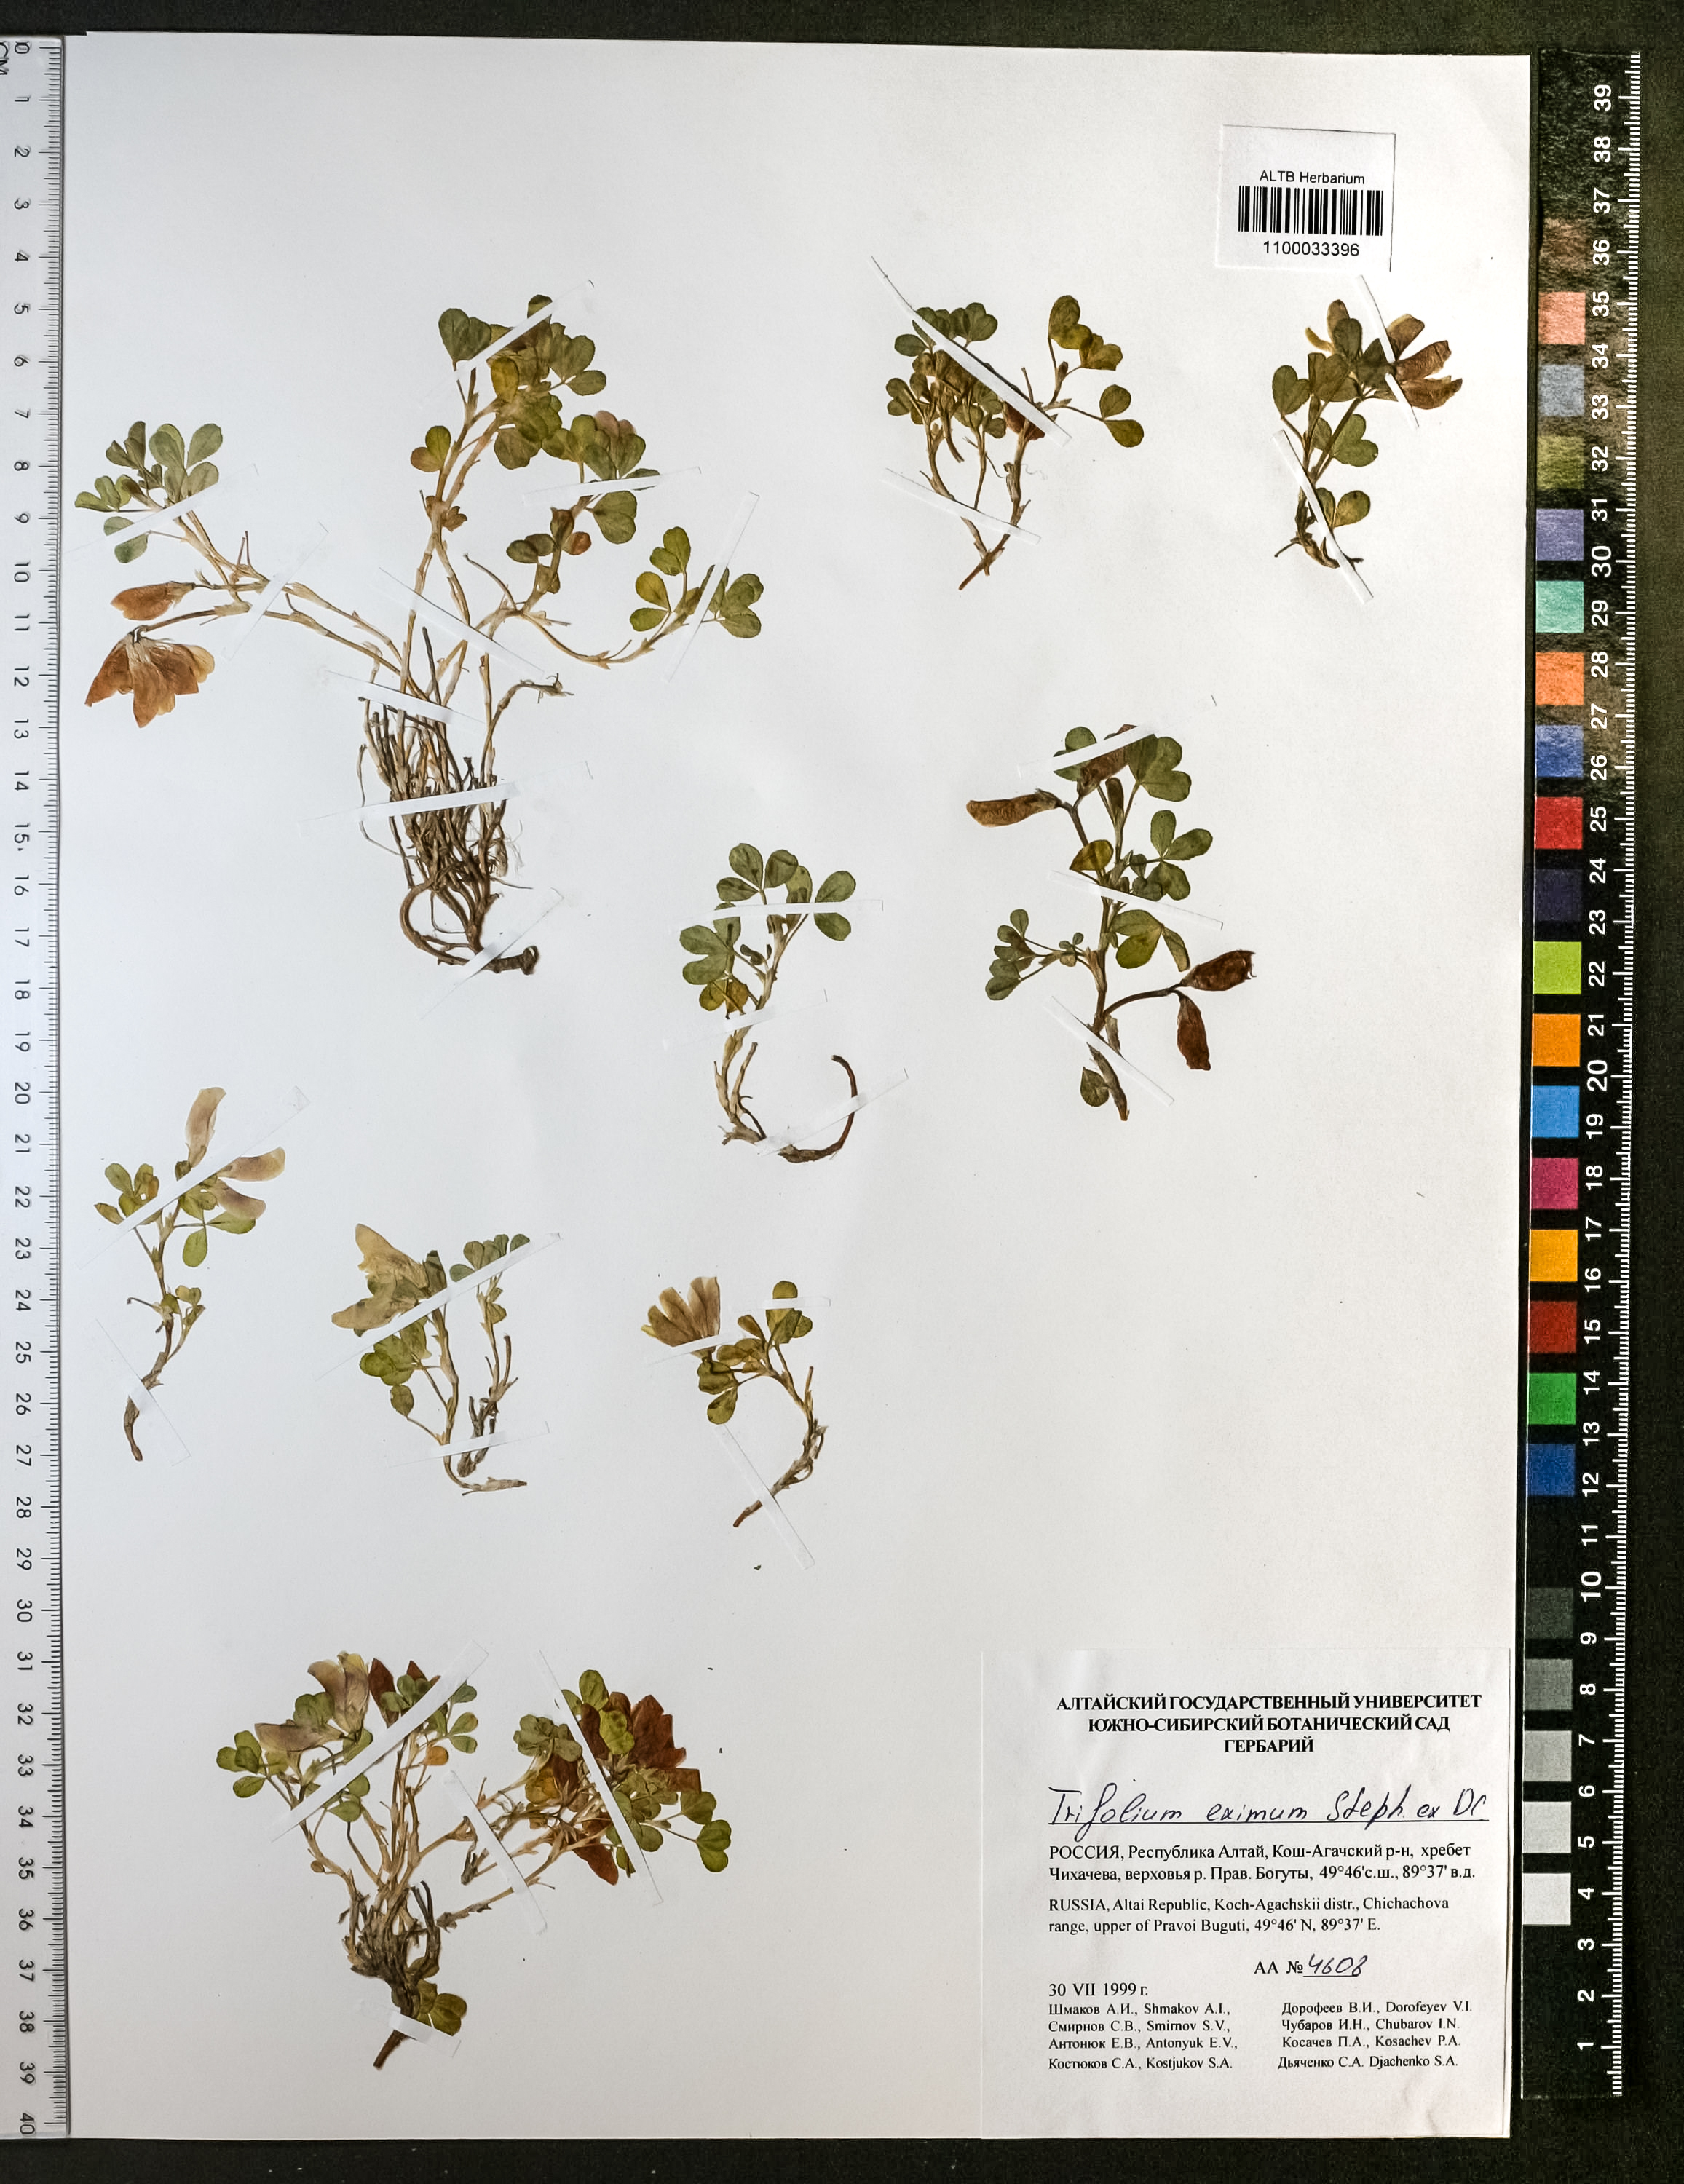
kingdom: Plantae
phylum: Tracheophyta
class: Magnoliopsida
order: Fabales
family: Fabaceae
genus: Trifolium
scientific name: Trifolium eximium
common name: Excellent clover
